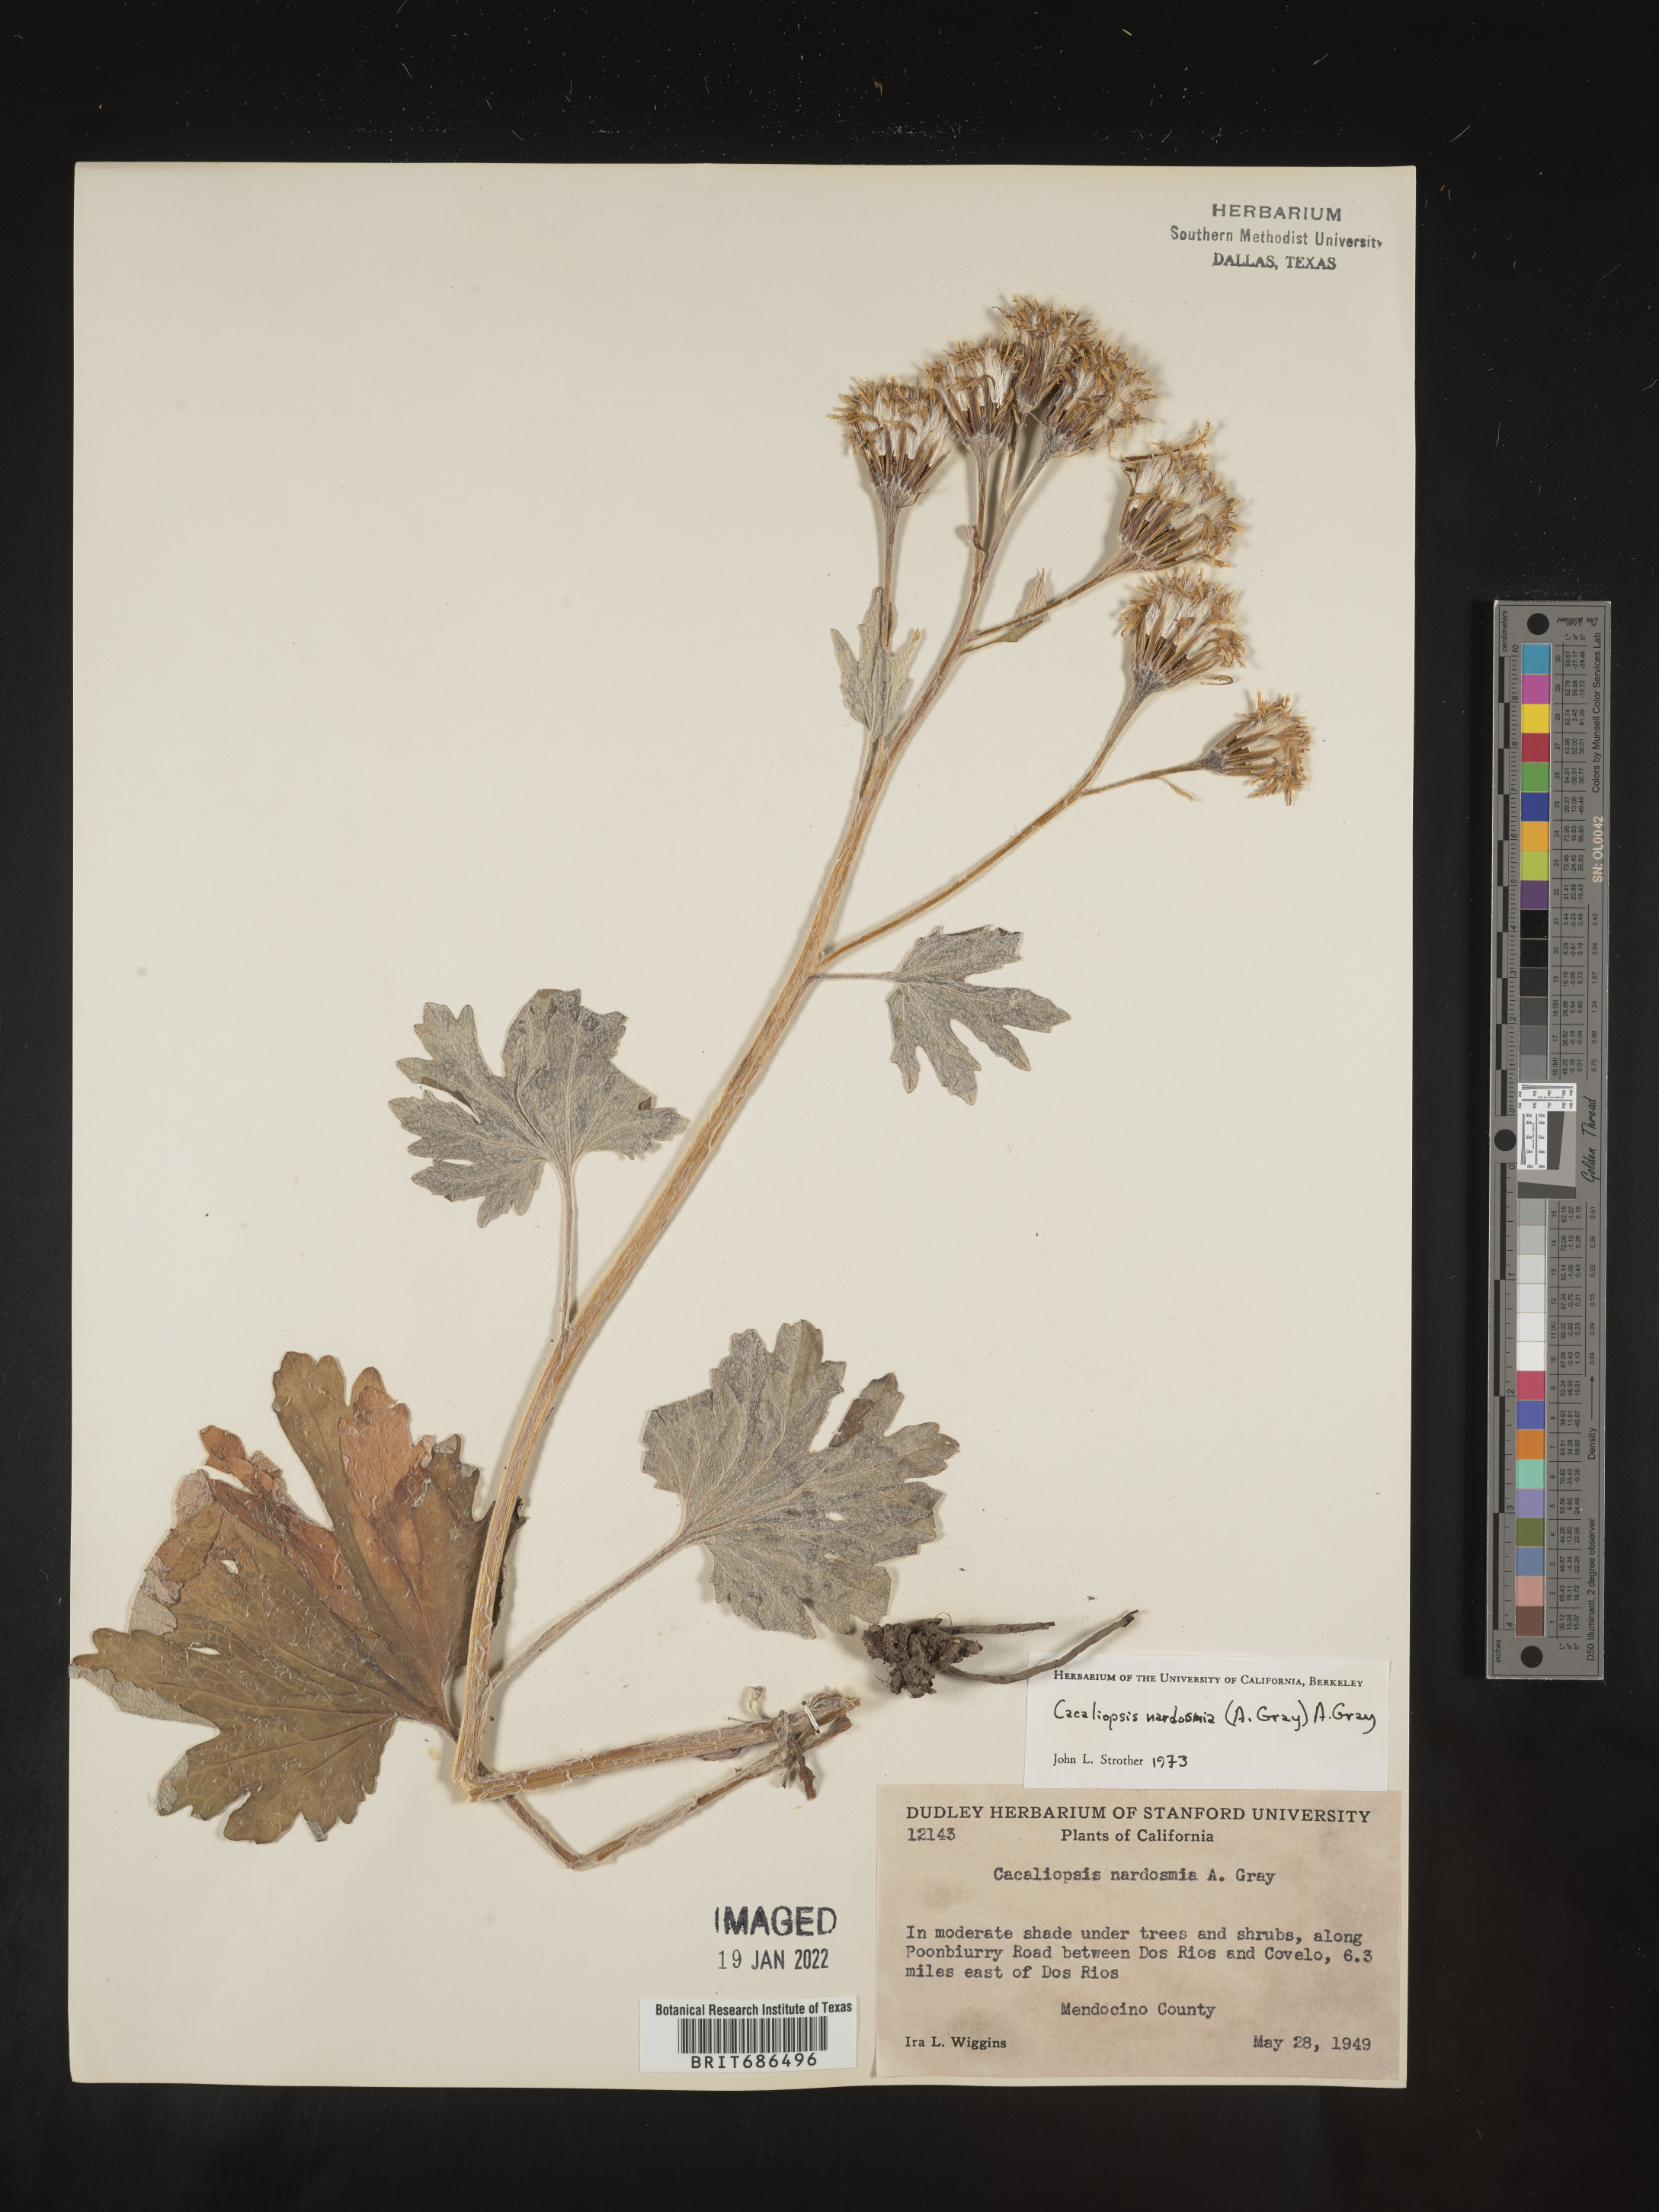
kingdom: Plantae
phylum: Tracheophyta
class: Magnoliopsida
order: Asterales
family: Asteraceae
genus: Cacaliopsis
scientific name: Cacaliopsis
